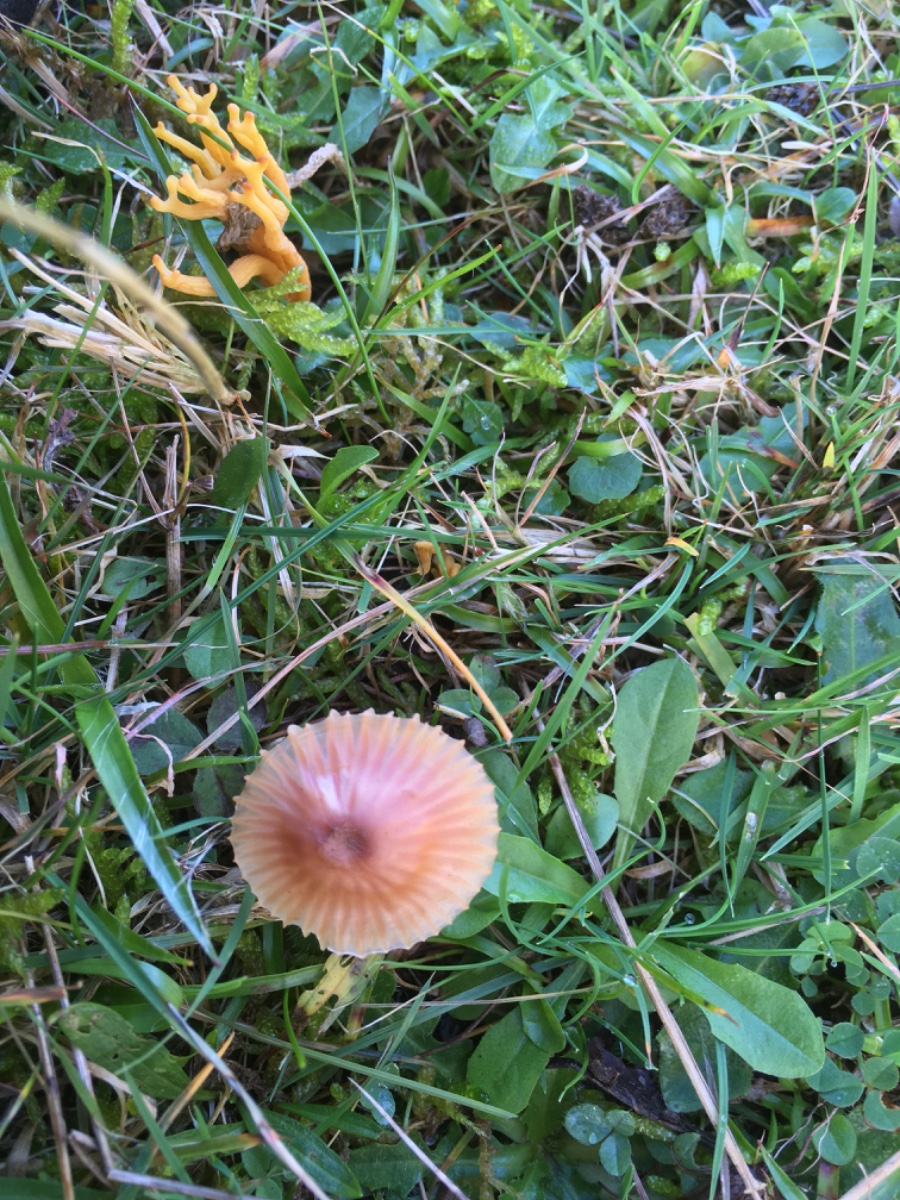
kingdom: Fungi
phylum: Basidiomycota
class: Agaricomycetes
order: Agaricales
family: Hygrophoraceae
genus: Hygrocybe
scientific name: Hygrocybe
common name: vokshat
